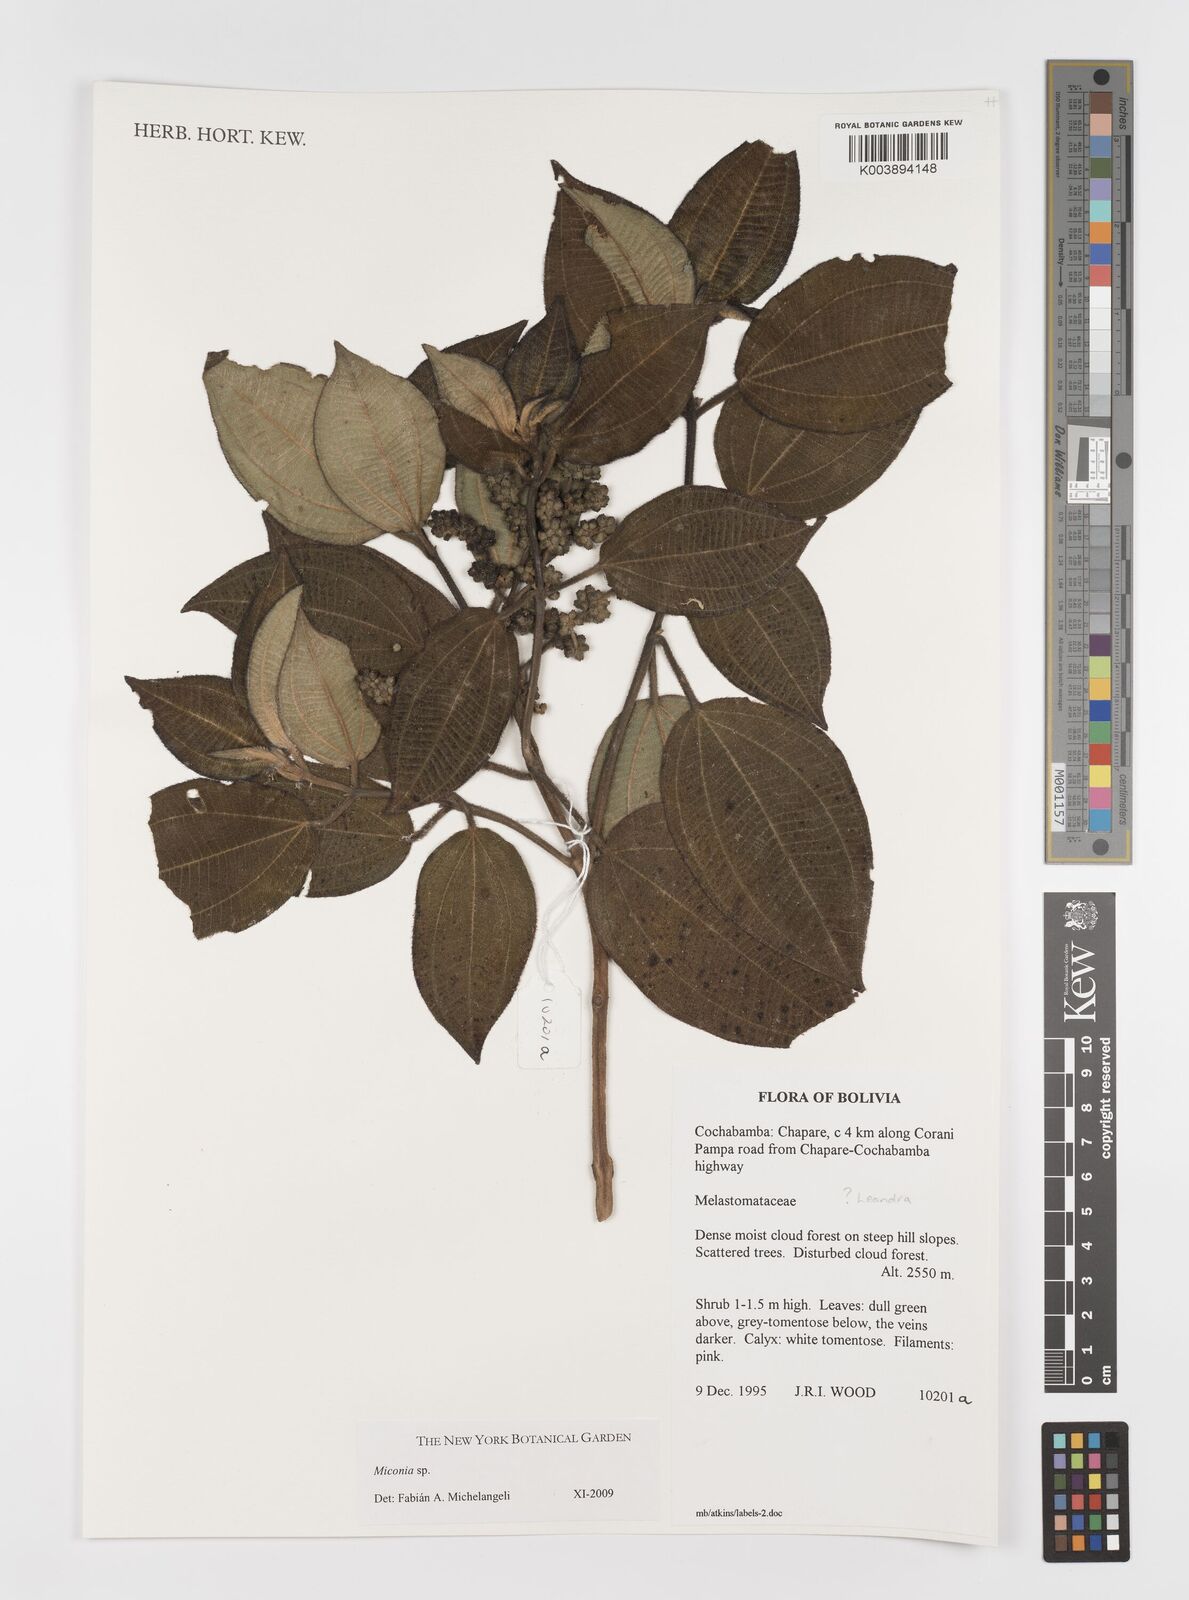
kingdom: Plantae
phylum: Tracheophyta
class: Magnoliopsida
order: Myrtales
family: Melastomataceae
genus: Miconia
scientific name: Miconia
